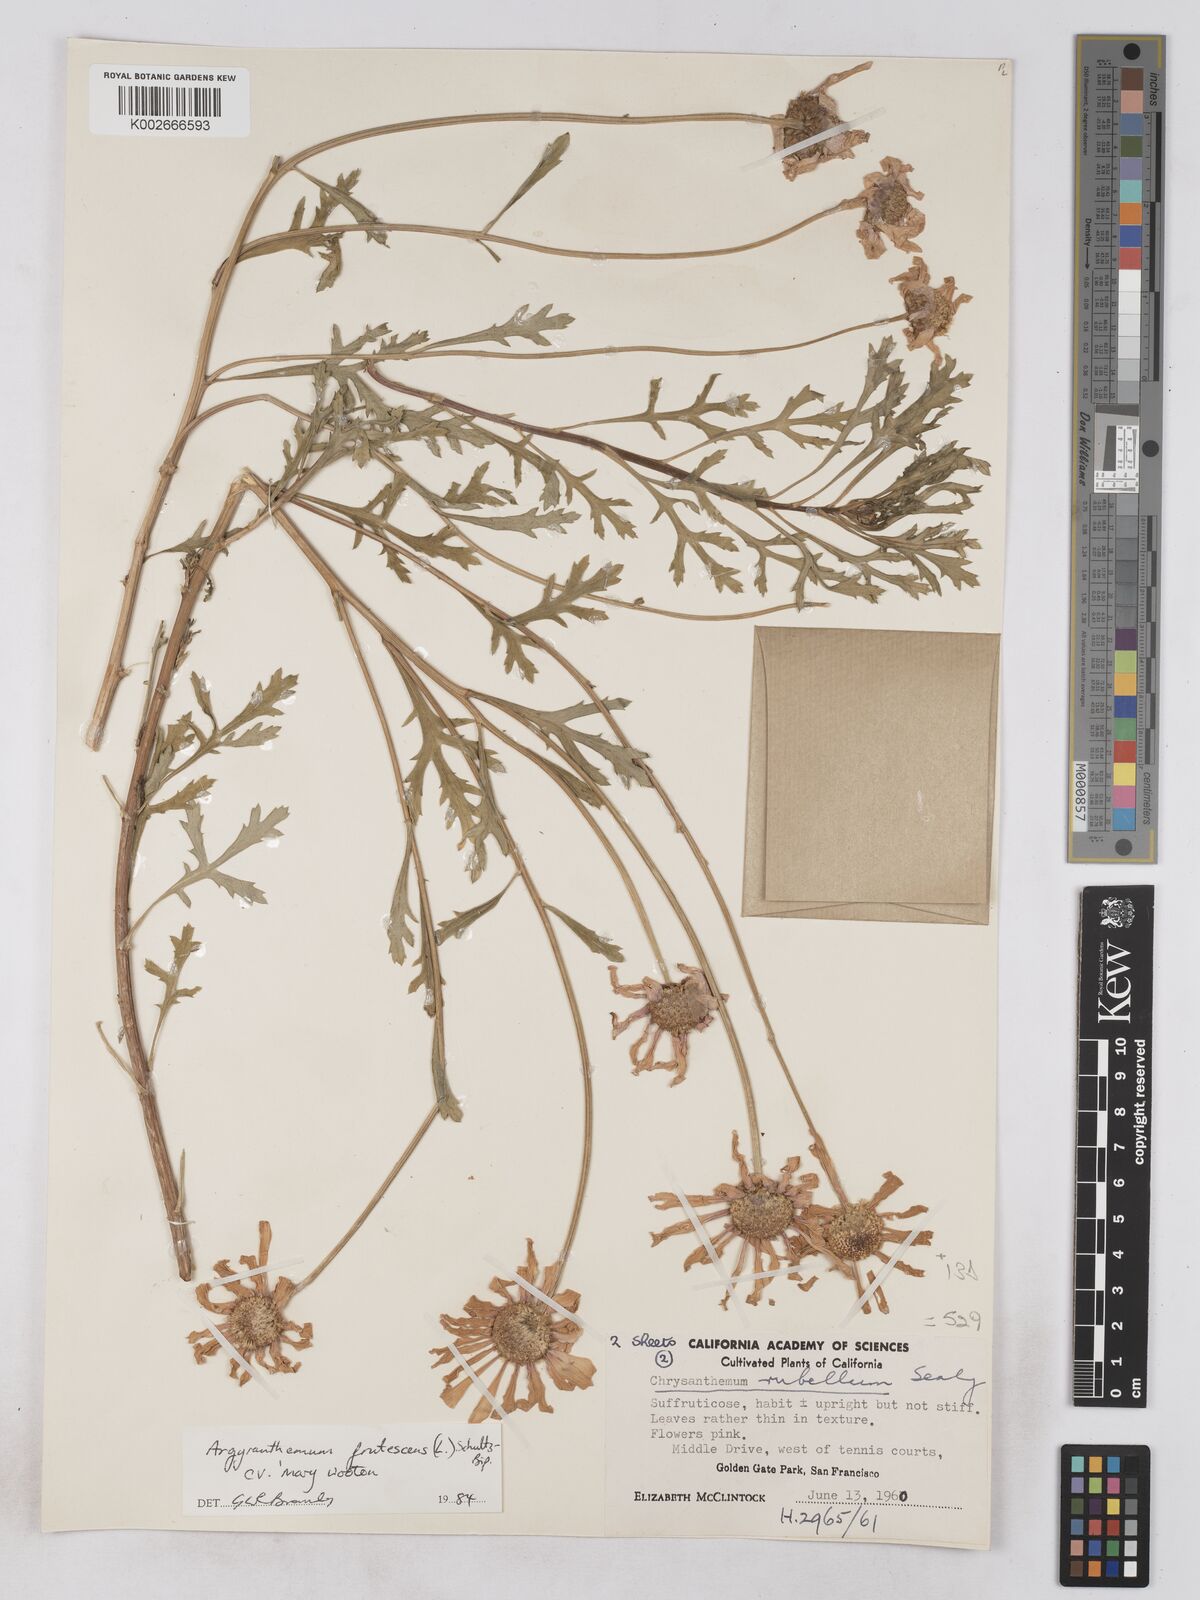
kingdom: Plantae
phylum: Tracheophyta
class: Magnoliopsida
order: Asterales
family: Asteraceae
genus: Argyranthemum
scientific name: Argyranthemum frutescens
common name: Paris daisy
